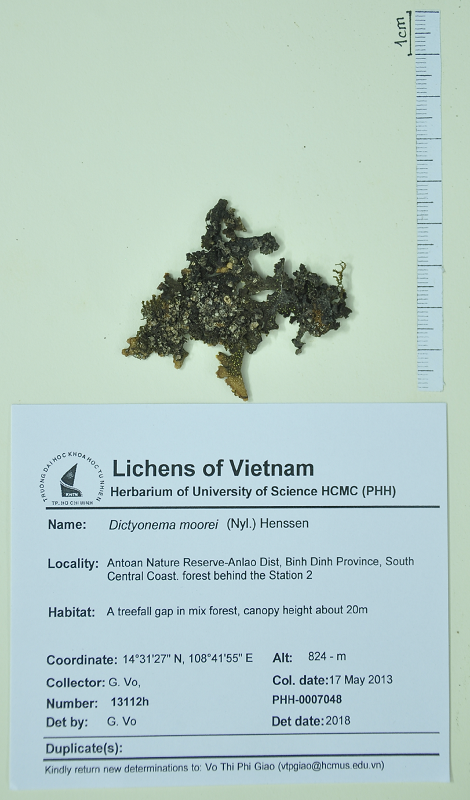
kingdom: Fungi
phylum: Basidiomycota
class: Agaricomycetes
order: Agaricales
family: Hygrophoraceae
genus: Dictyonema
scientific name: Dictyonema moorei
